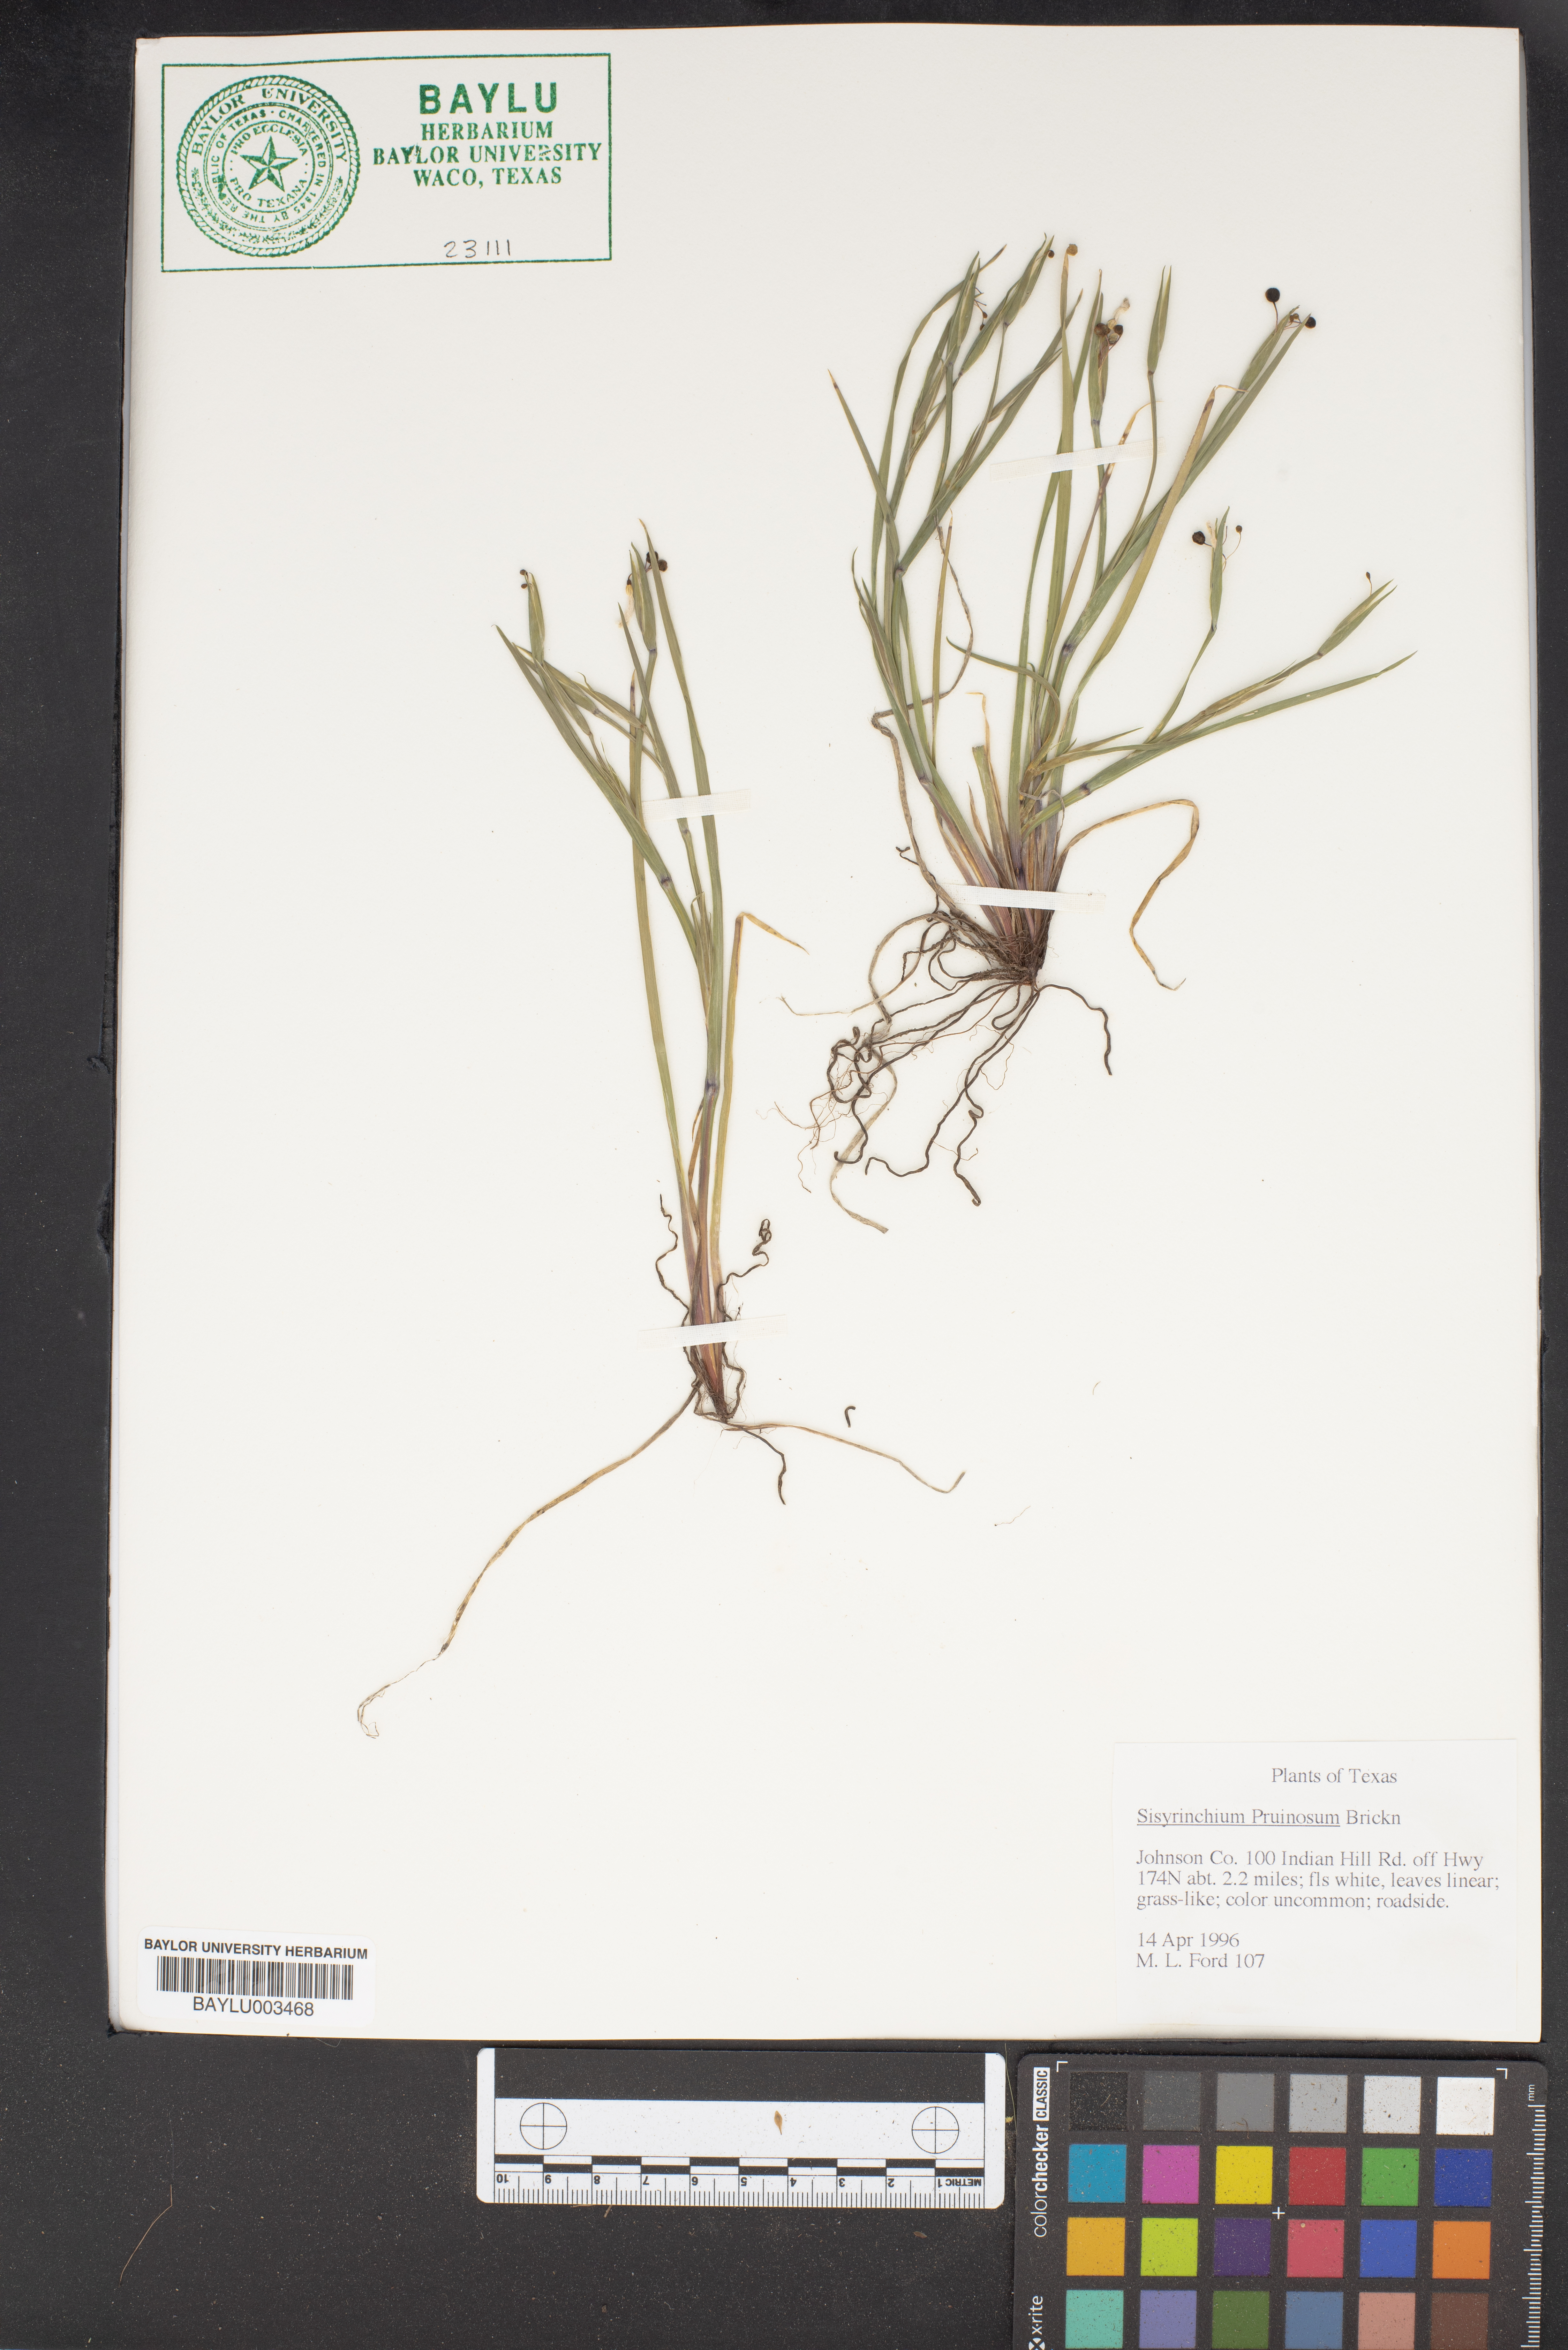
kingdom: Plantae
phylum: Tracheophyta
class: Liliopsida
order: Asparagales
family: Iridaceae
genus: Sisyrinchium
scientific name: Sisyrinchium pruinosum
